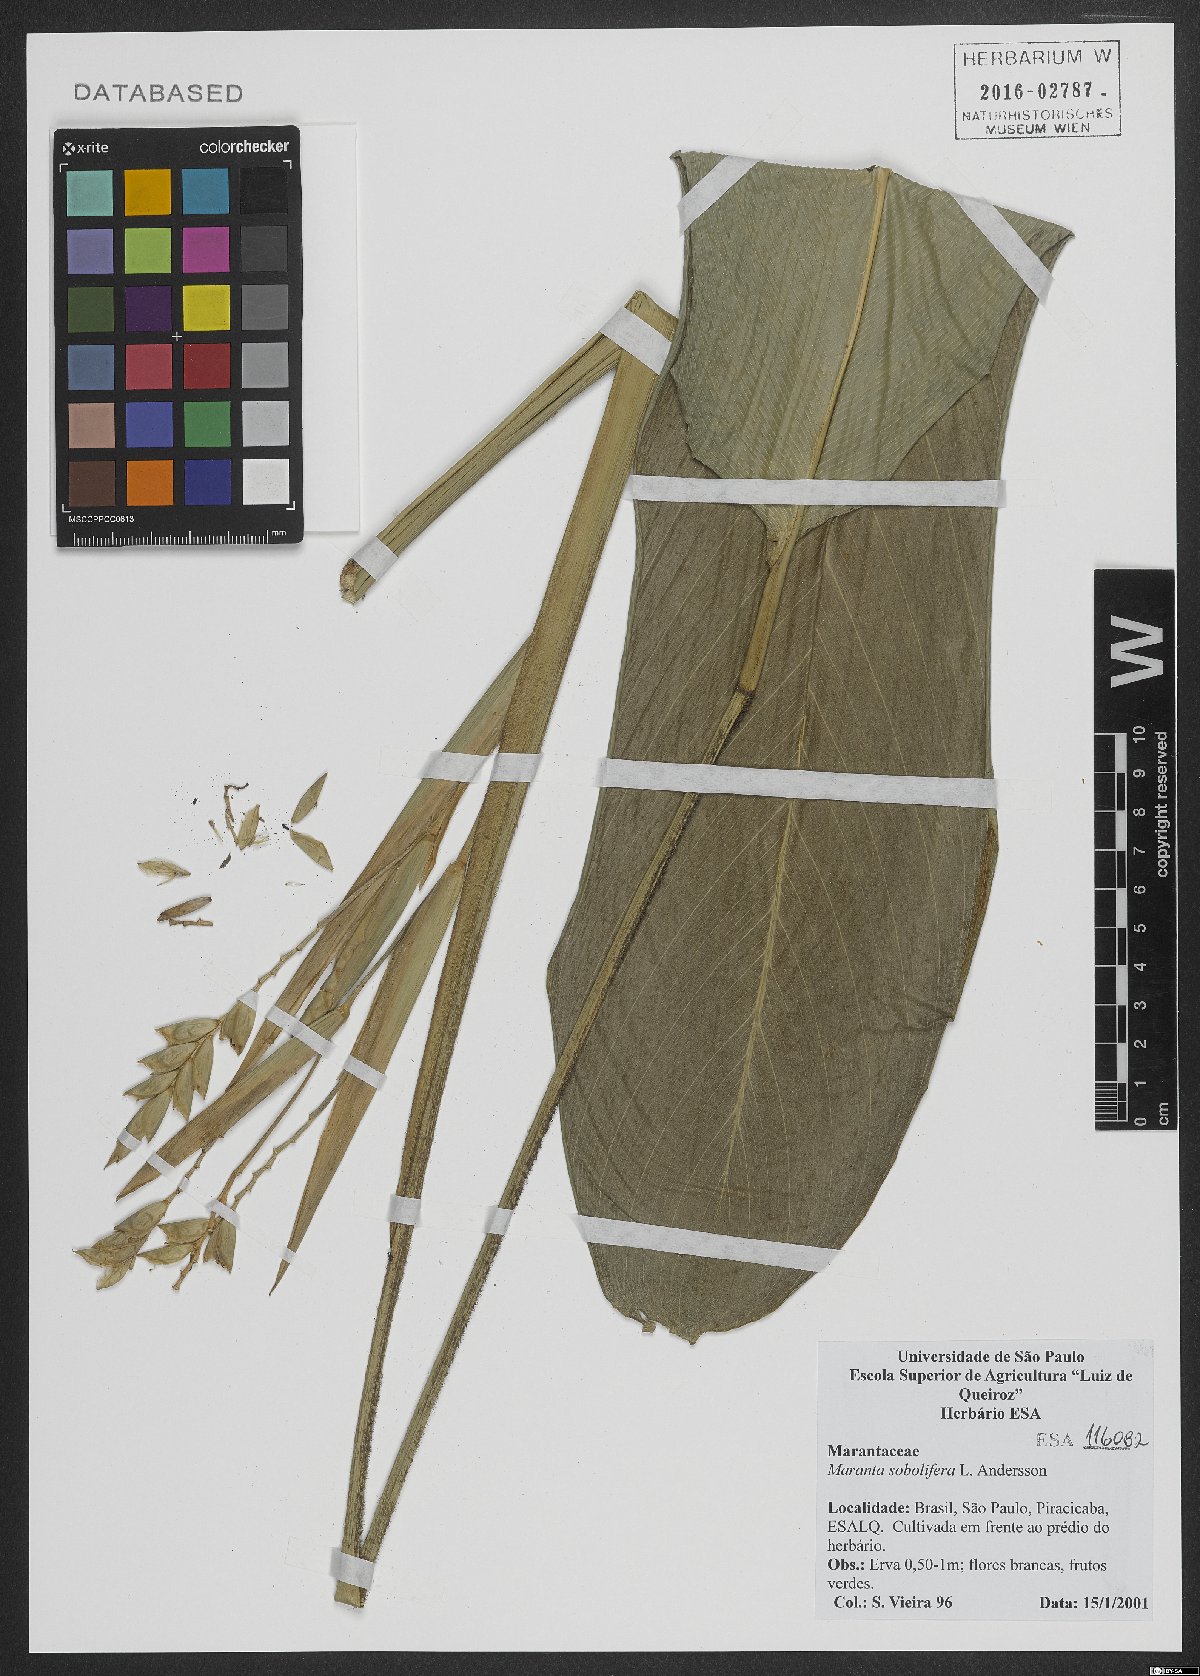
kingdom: Plantae
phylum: Tracheophyta
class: Liliopsida
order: Zingiberales
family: Marantaceae
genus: Maranta
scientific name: Maranta sobolifera
